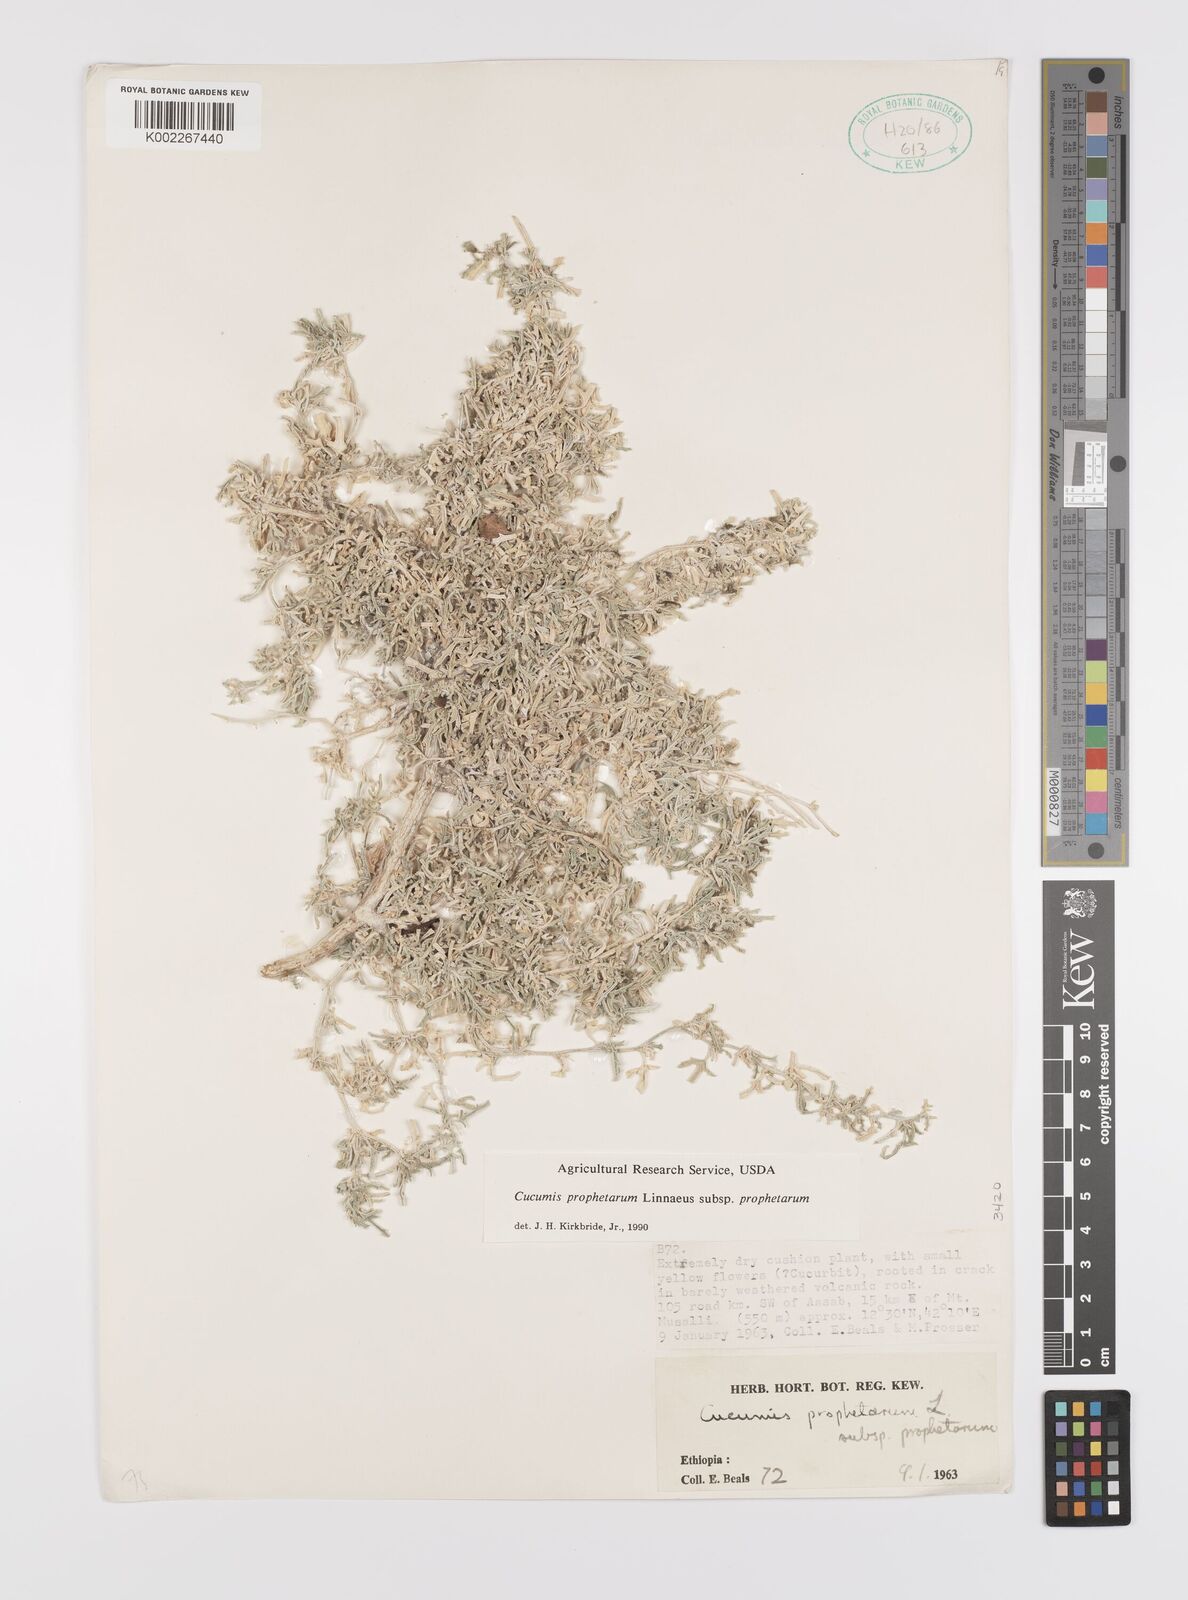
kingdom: Plantae
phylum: Tracheophyta
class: Magnoliopsida
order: Cucurbitales
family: Cucurbitaceae
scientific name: Cucurbitaceae
